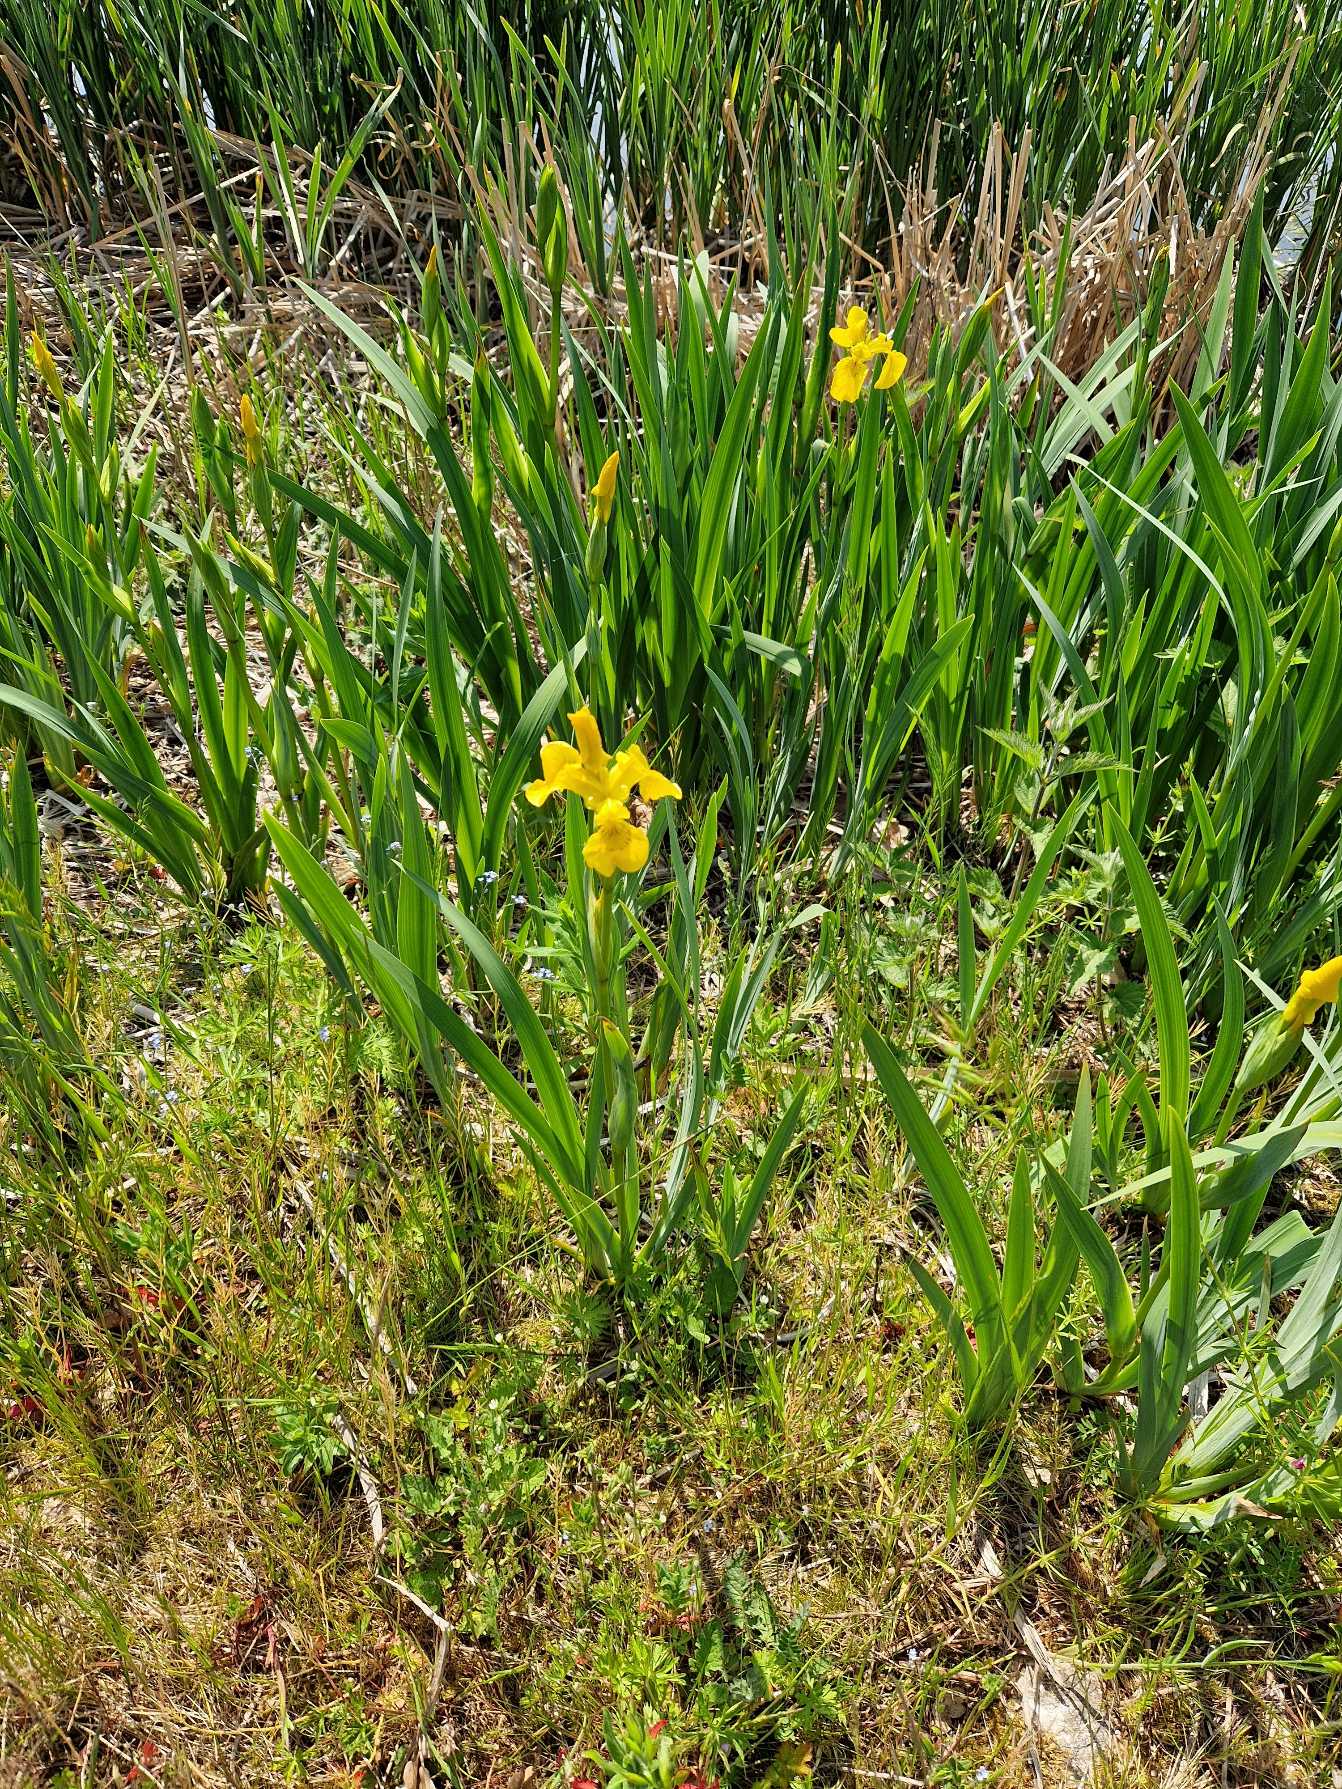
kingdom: Plantae
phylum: Tracheophyta
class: Liliopsida
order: Asparagales
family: Iridaceae
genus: Iris
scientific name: Iris pseudacorus
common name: Gul iris
